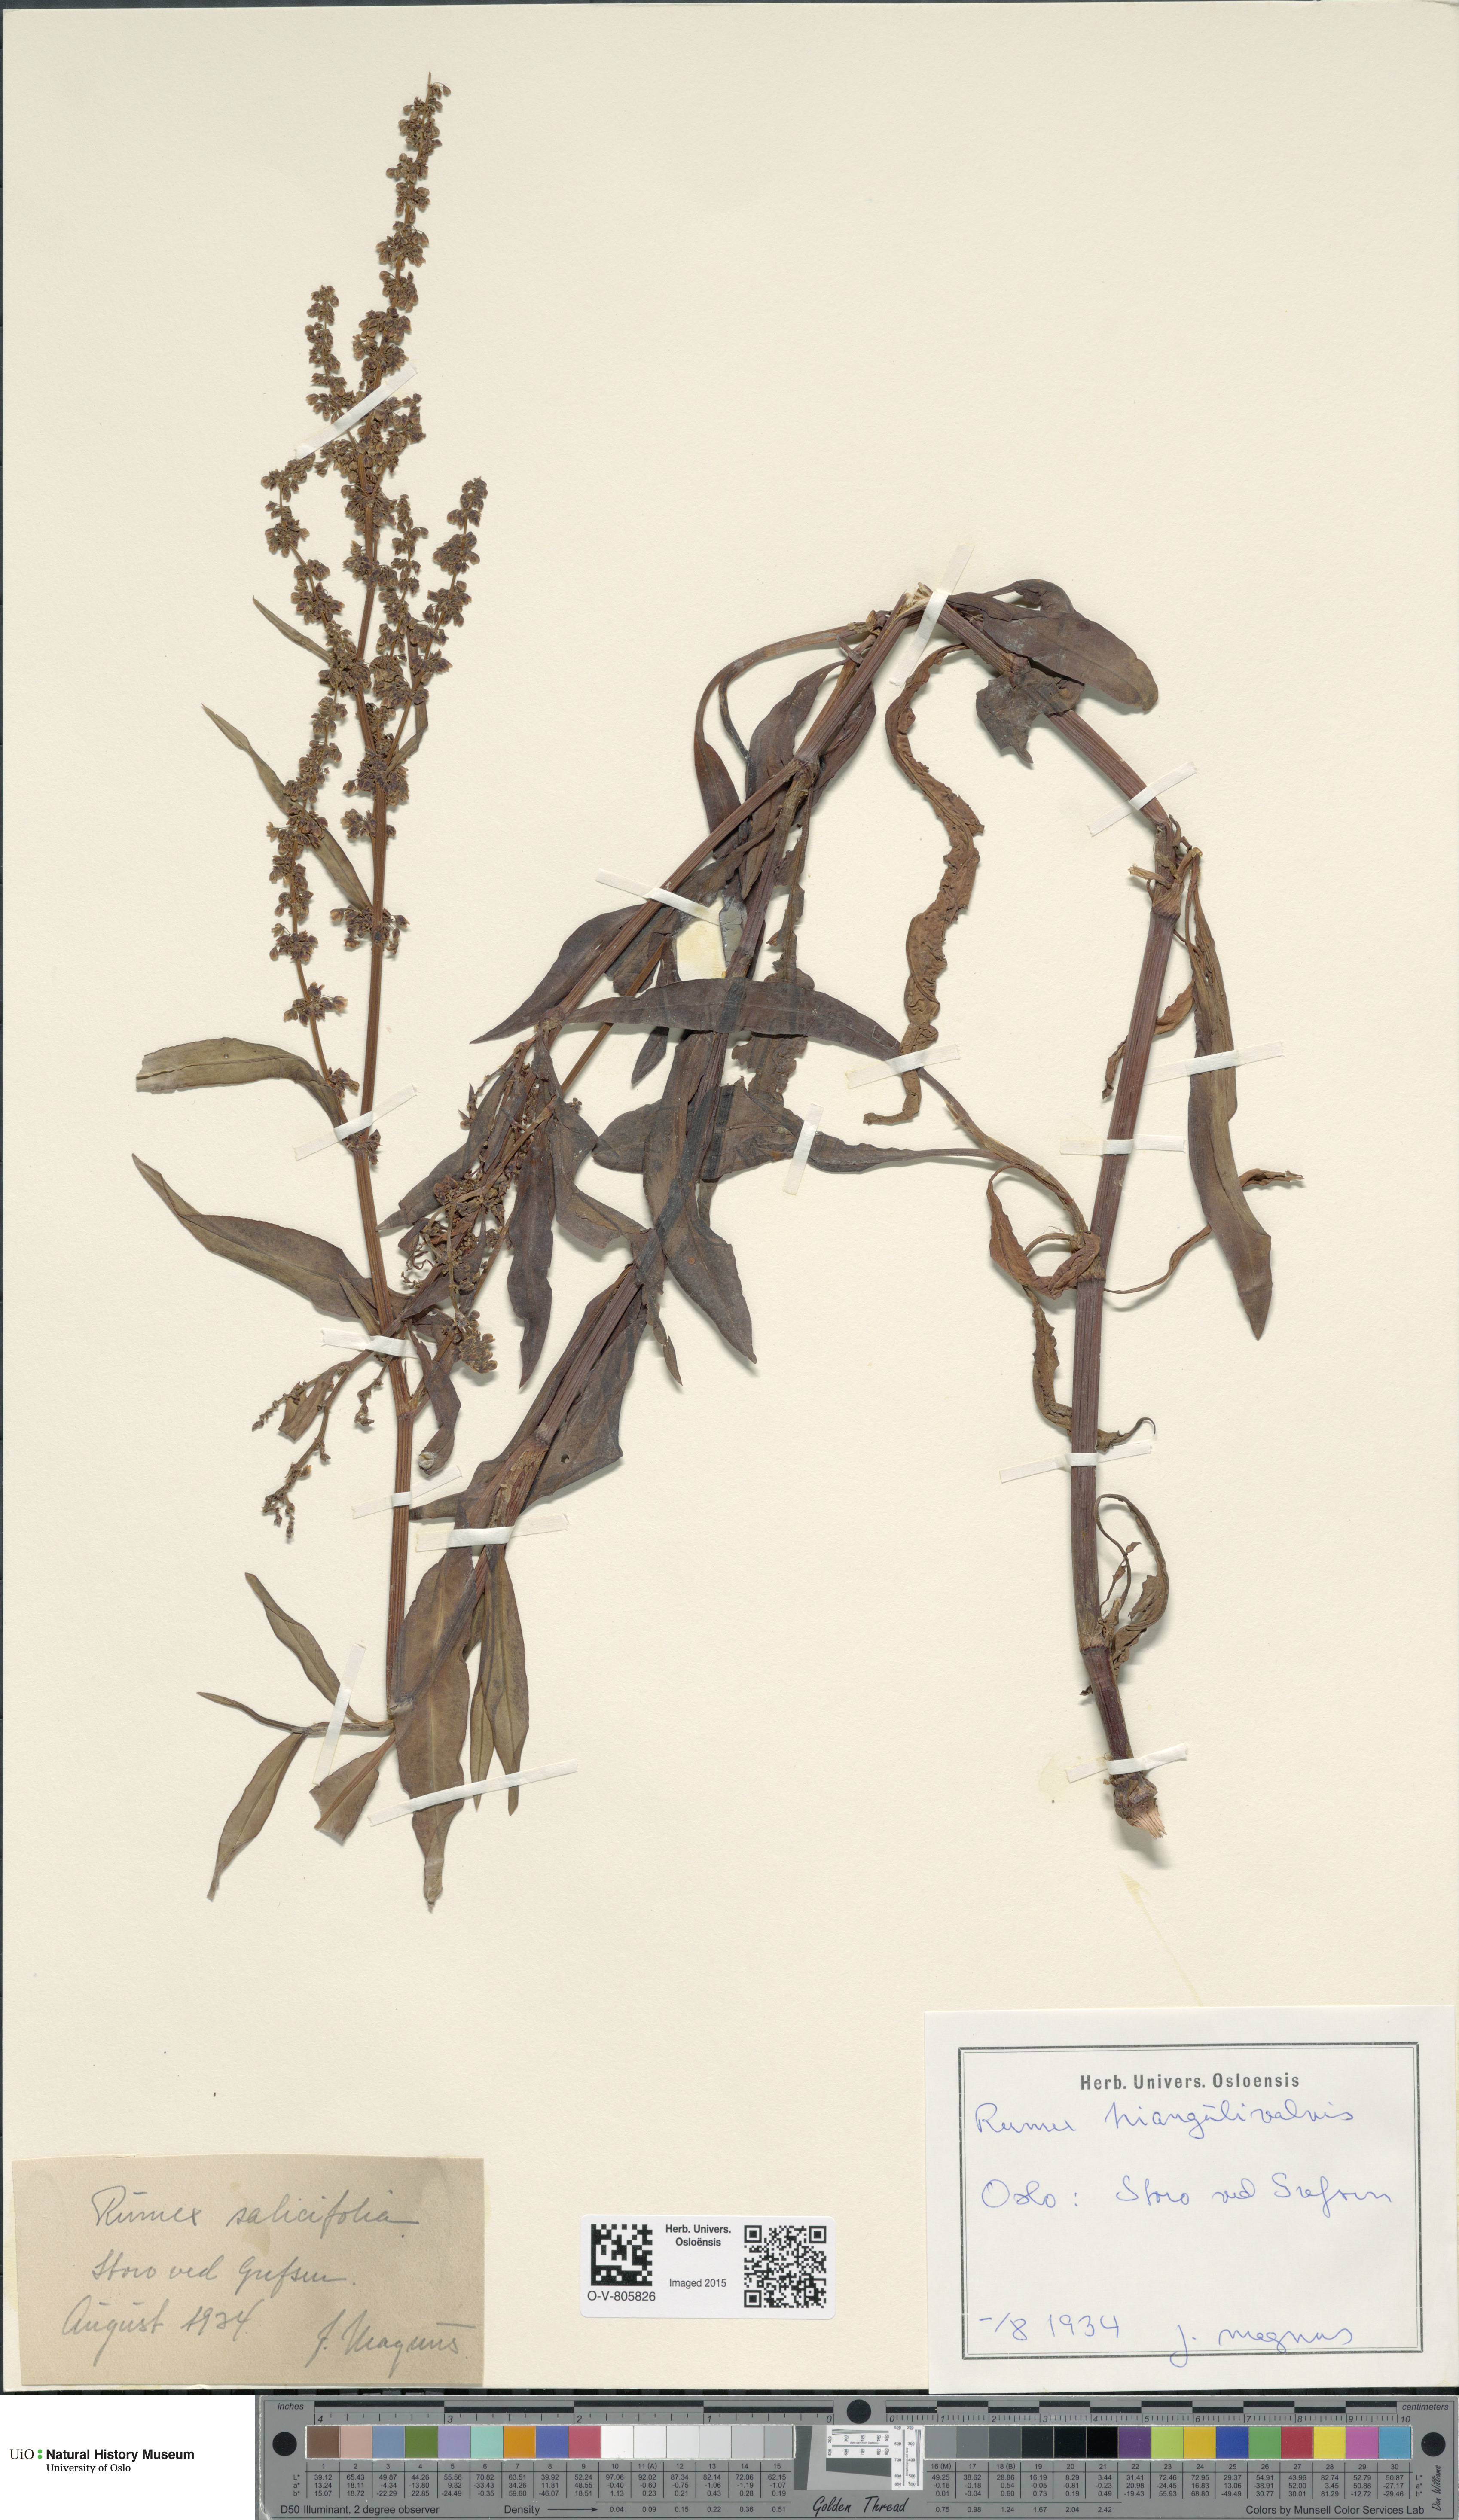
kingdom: Plantae
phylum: Tracheophyta
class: Magnoliopsida
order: Caryophyllales
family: Polygonaceae
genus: Rumex
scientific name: Rumex triangulivalvis
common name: Triangular-valve dock
